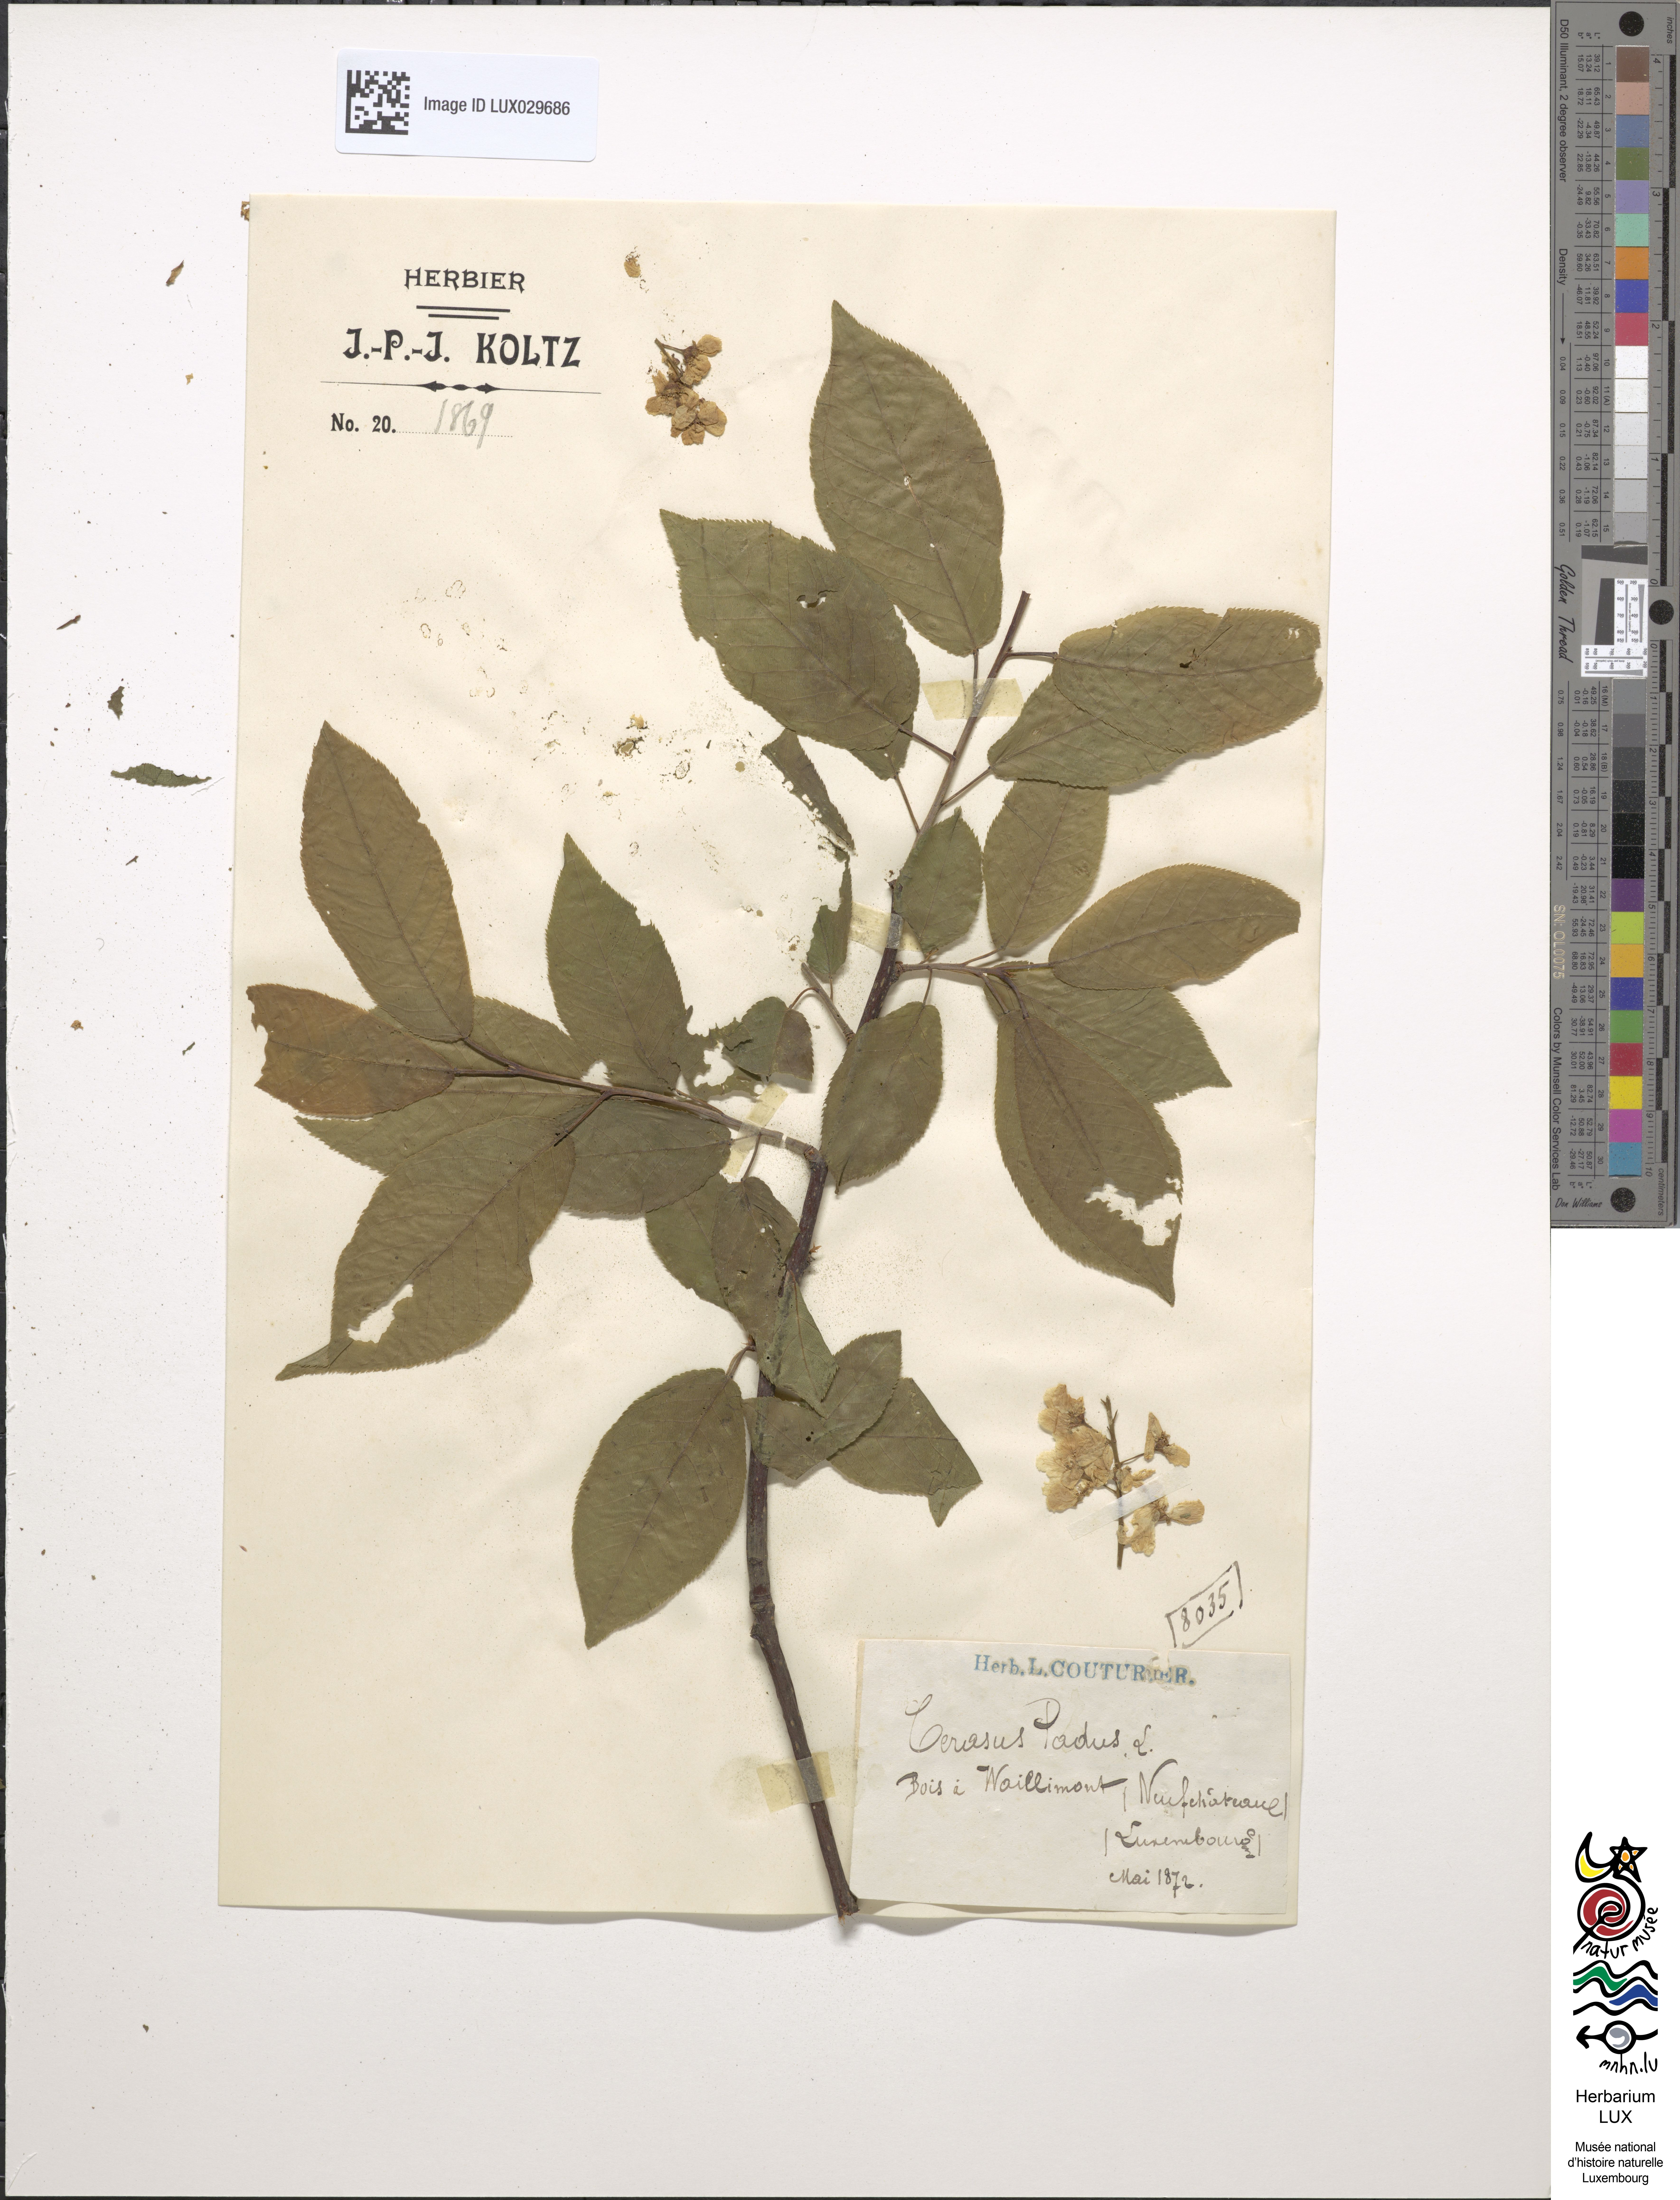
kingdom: Plantae
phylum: Tracheophyta
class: Magnoliopsida
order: Rosales
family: Rosaceae
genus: Prunus
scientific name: Prunus padus
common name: Bird cherry
